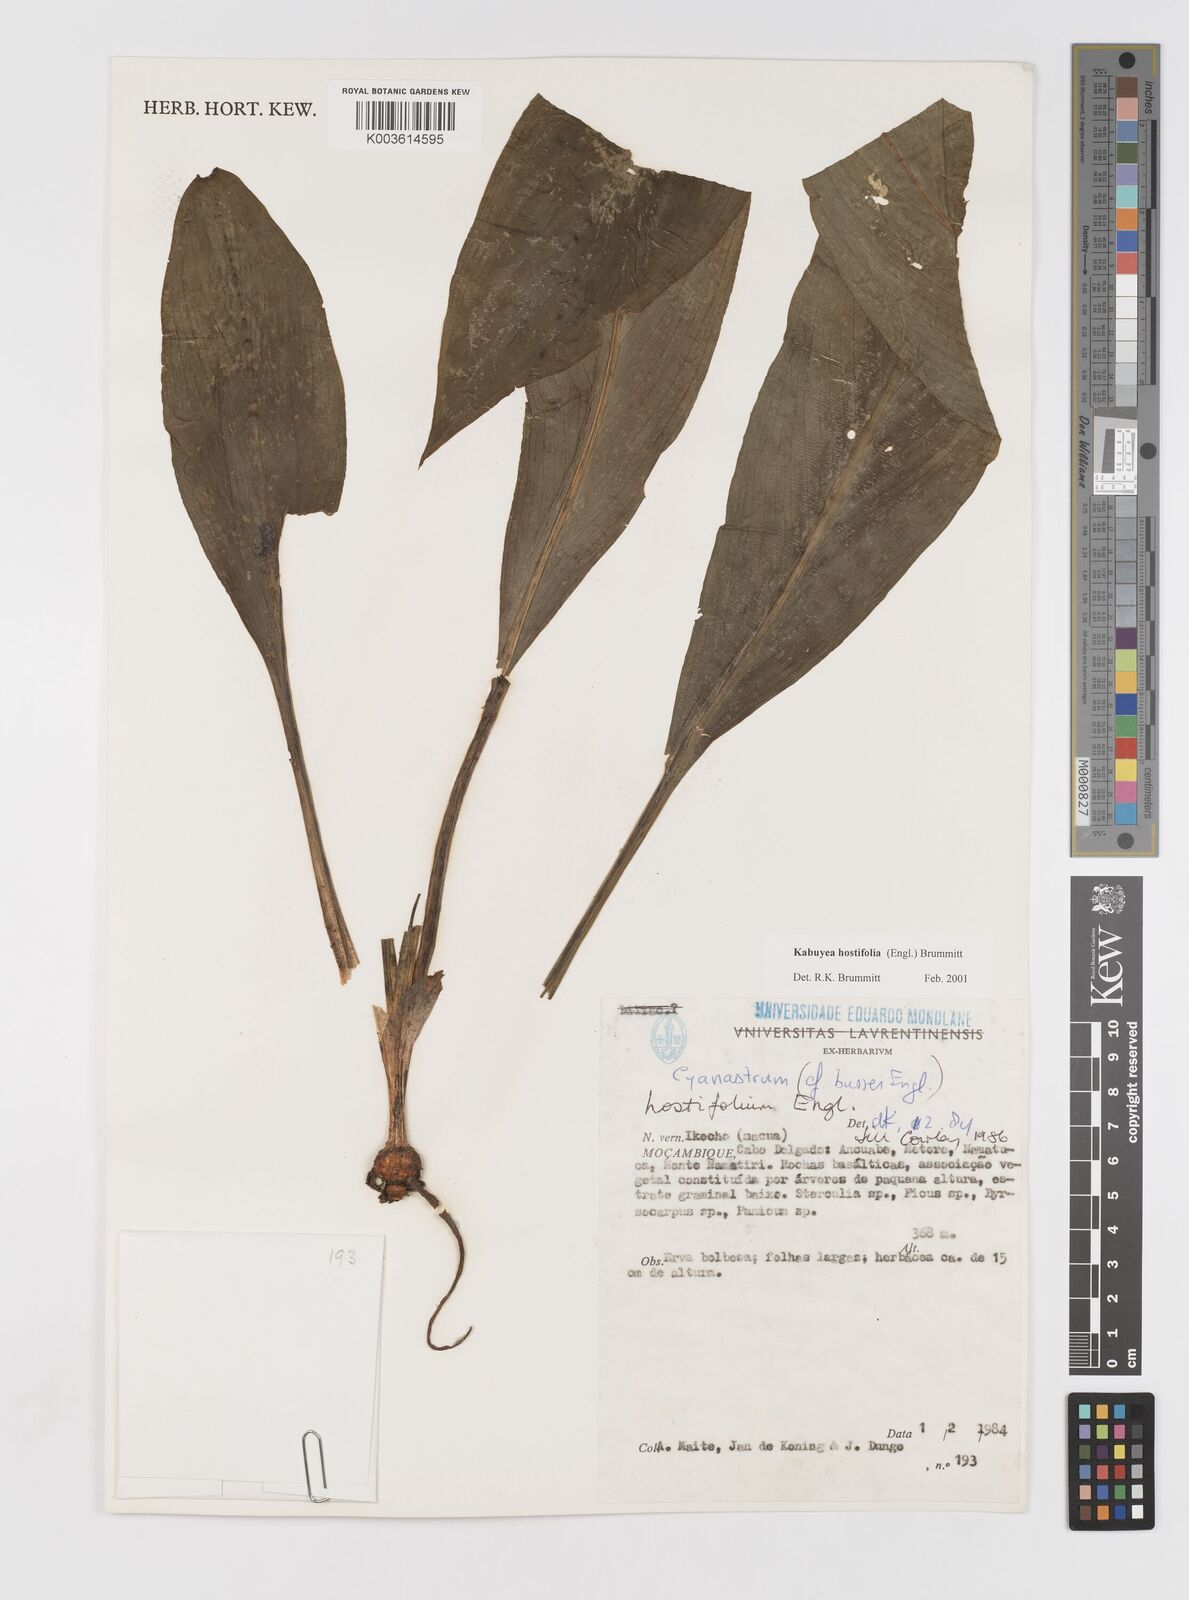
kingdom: Plantae
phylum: Tracheophyta
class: Liliopsida
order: Asparagales
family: Tecophilaeaceae
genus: Kabuyea
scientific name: Kabuyea hostifolia
